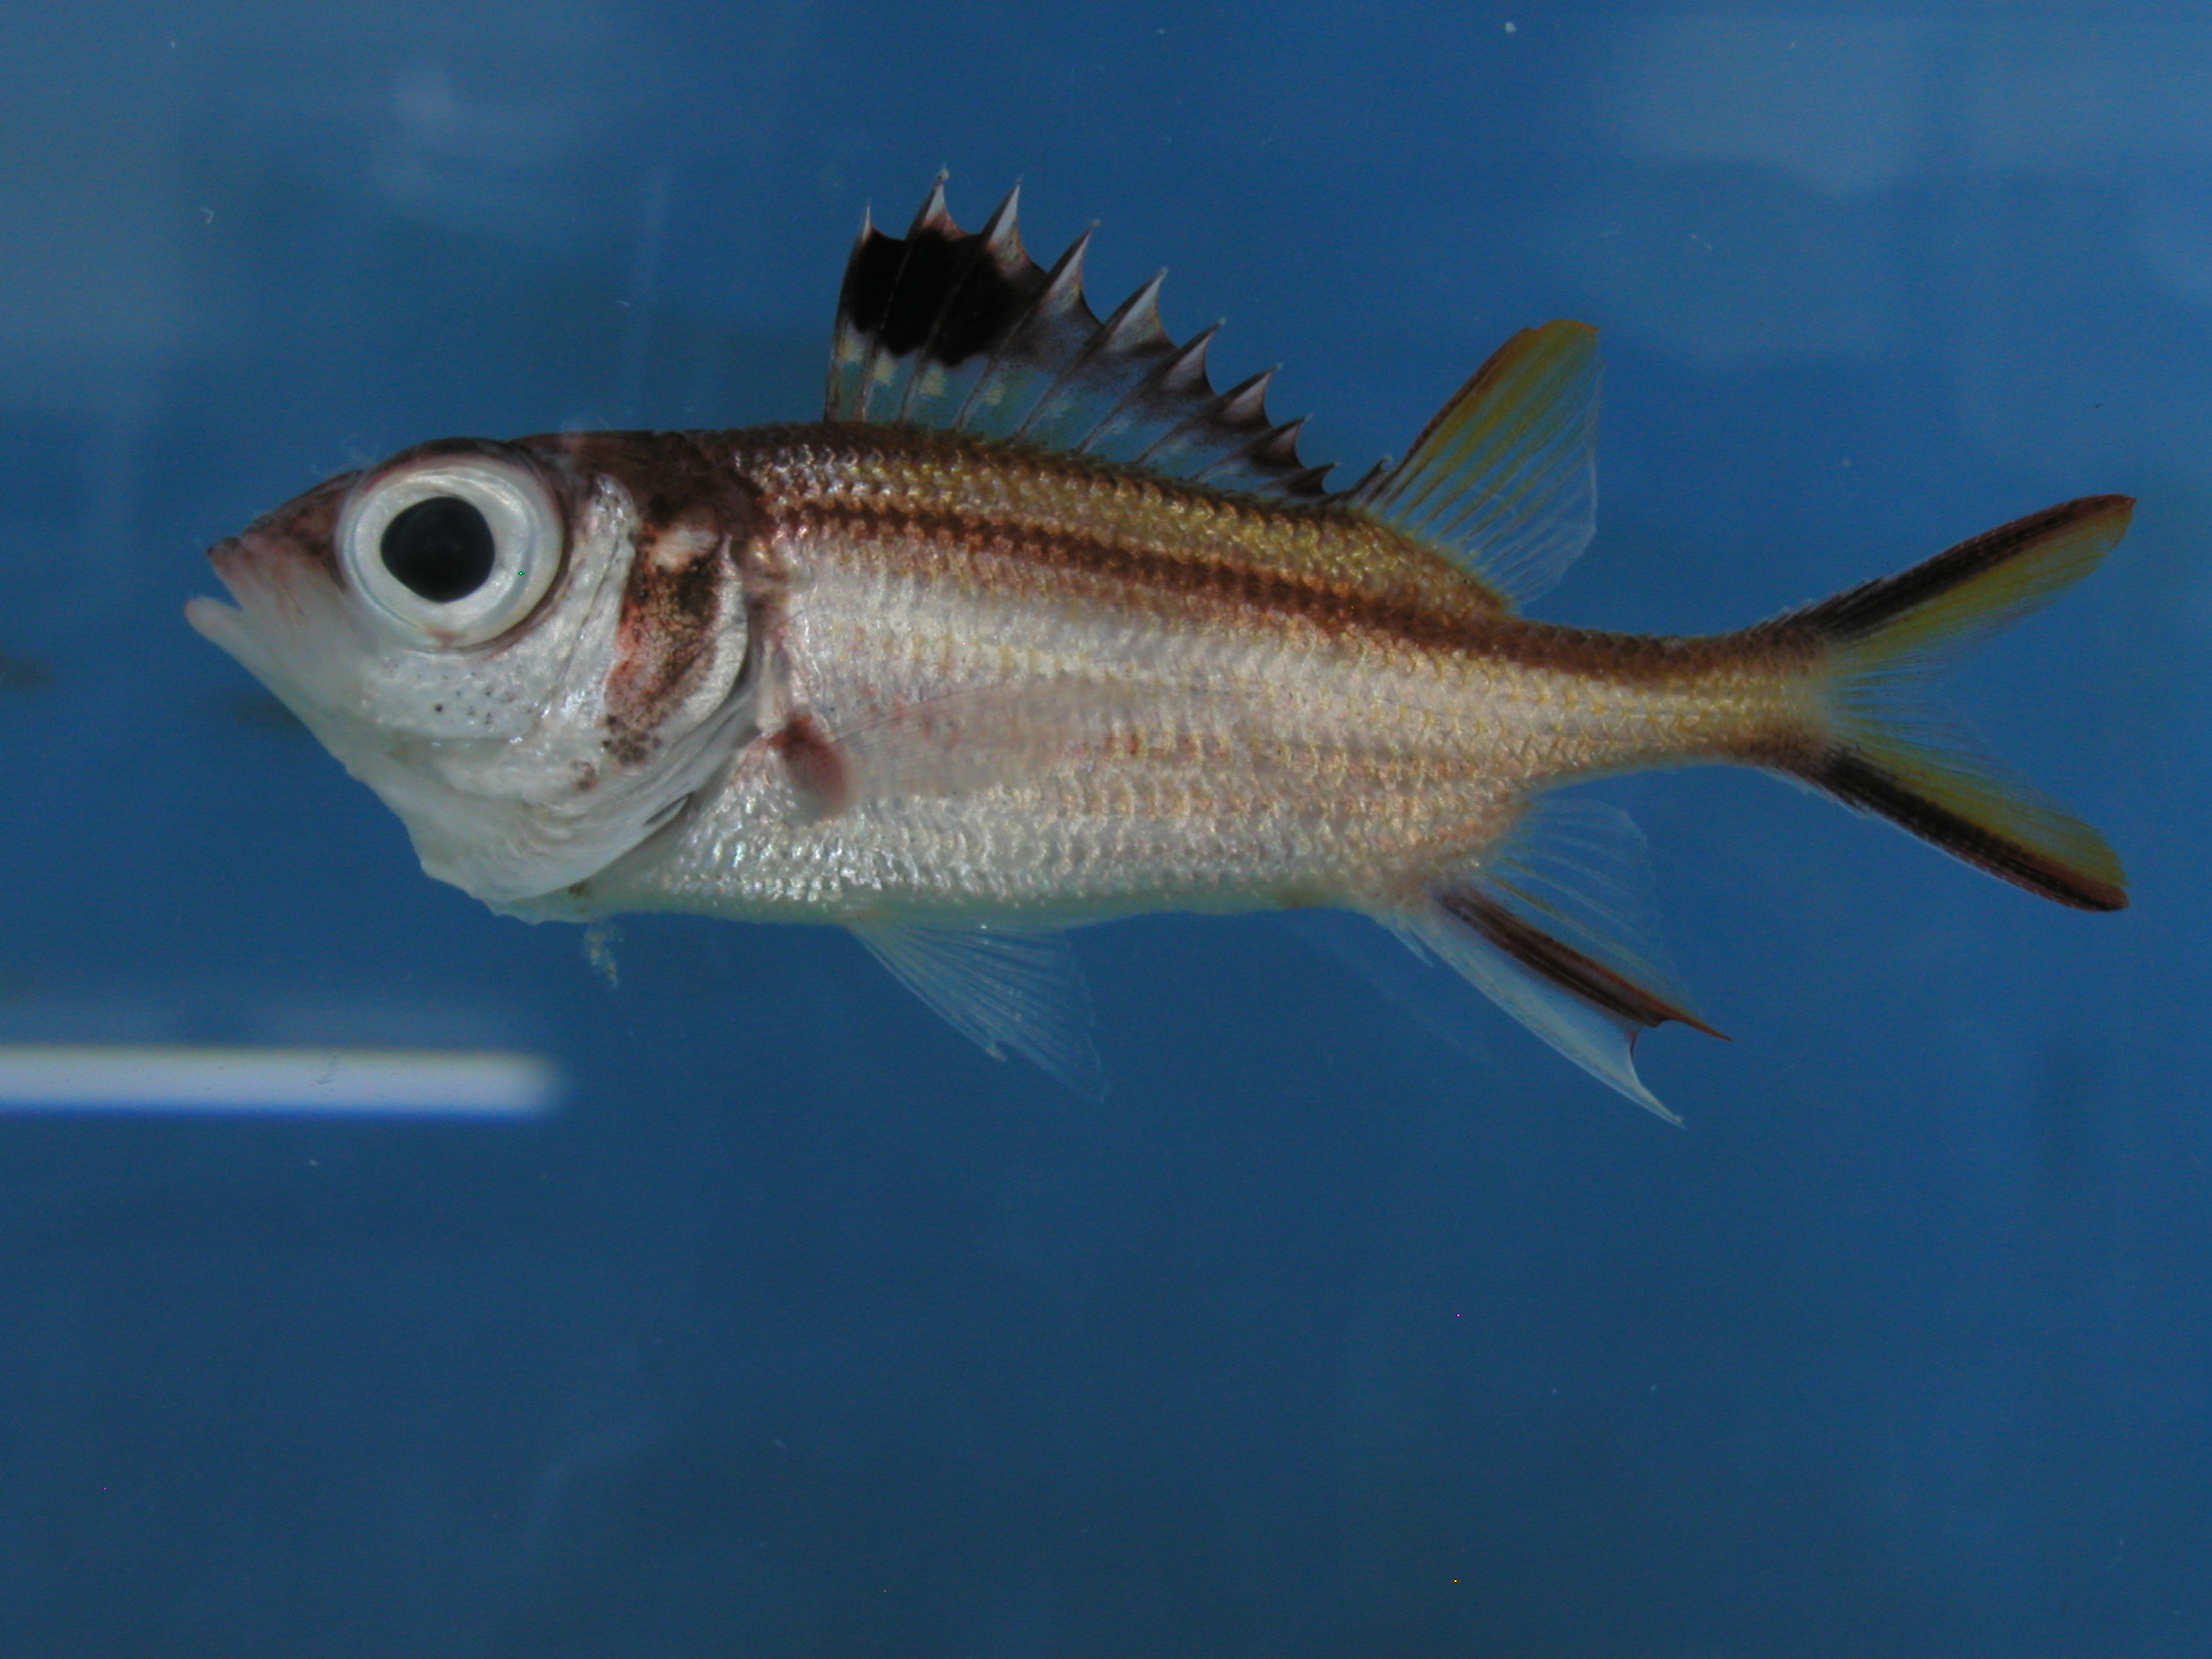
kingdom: Animalia
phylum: Chordata
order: Beryciformes
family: Holocentridae
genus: Neoniphon
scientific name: Neoniphon sammara
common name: Sammara squirrelfish
